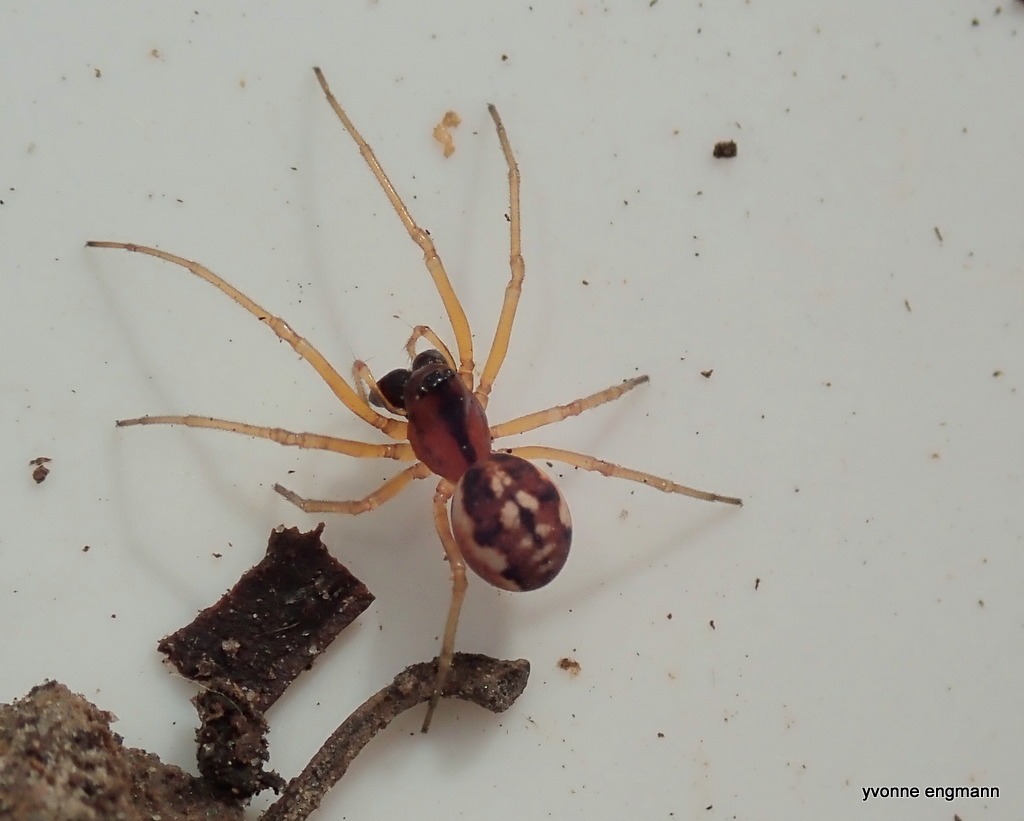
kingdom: Animalia
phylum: Arthropoda
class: Arachnida
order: Araneae
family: Tetragnathidae
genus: Pachygnatha
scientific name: Pachygnatha listeri
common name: Skovtykkæbe
